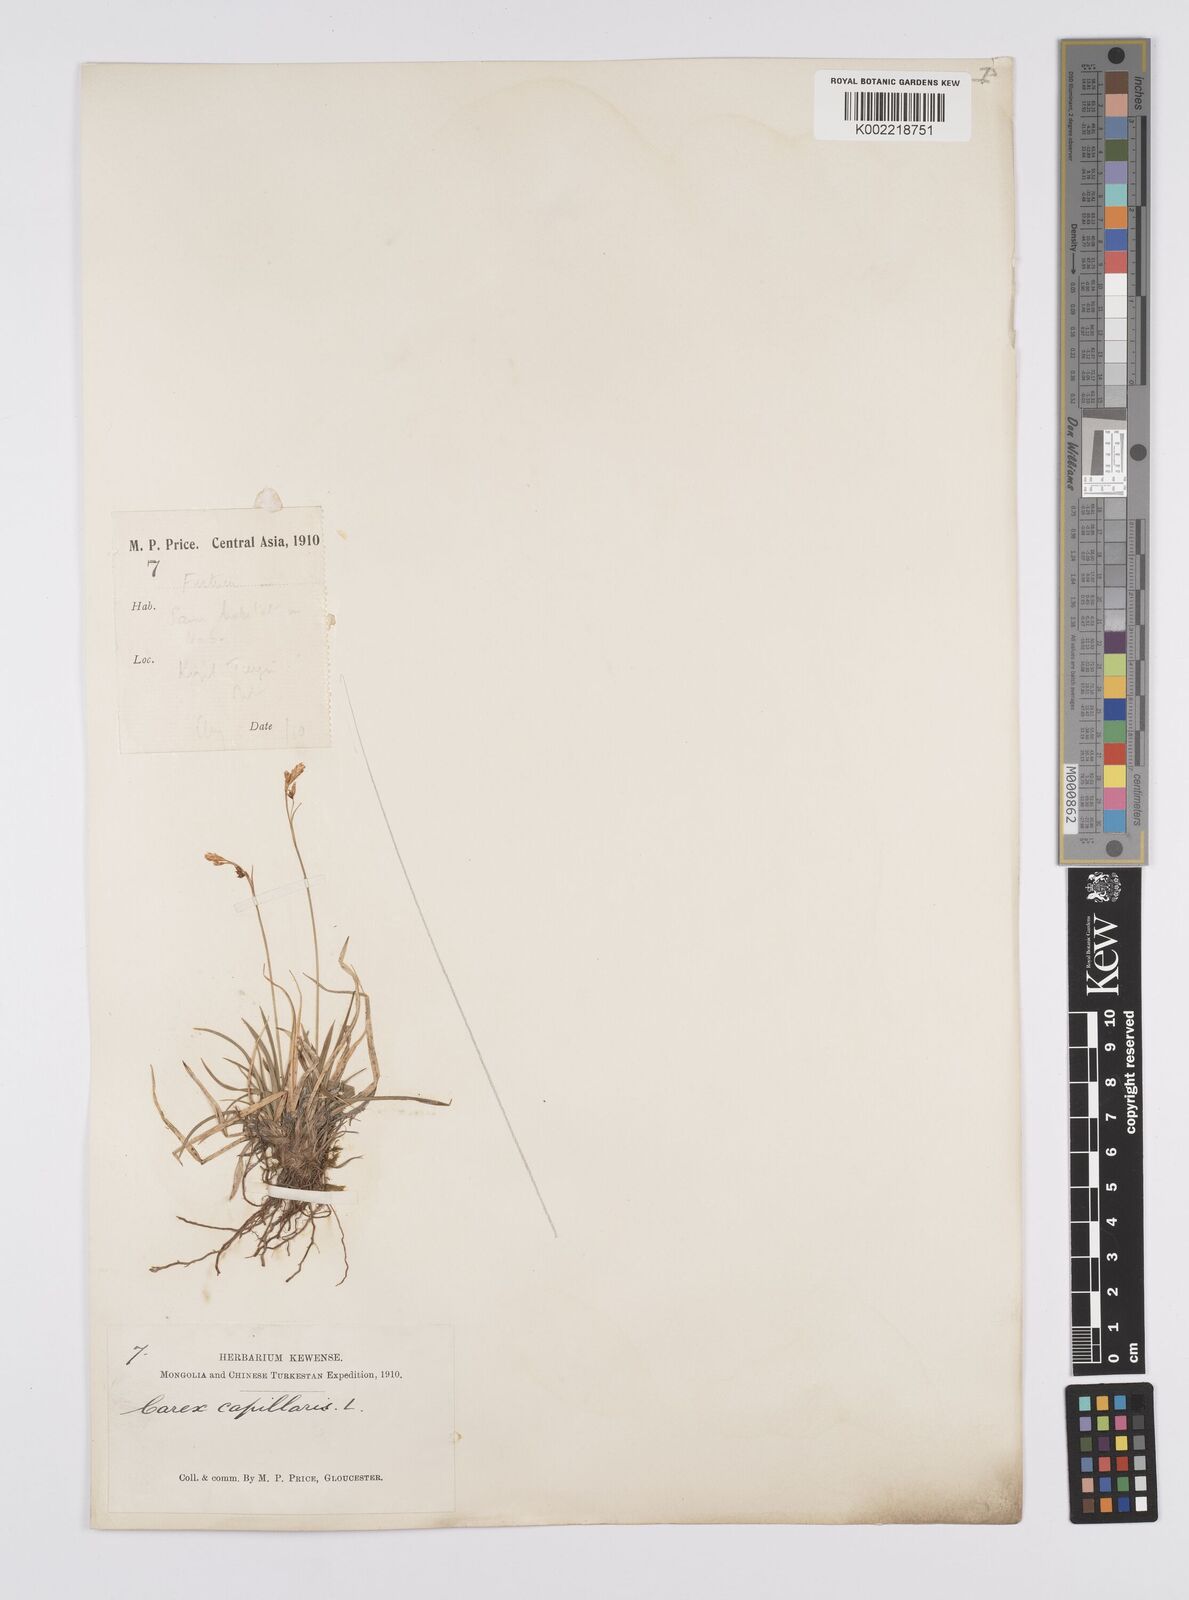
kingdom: Plantae
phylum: Tracheophyta
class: Liliopsida
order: Poales
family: Cyperaceae
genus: Carex
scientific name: Carex capillaris
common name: Hair sedge
